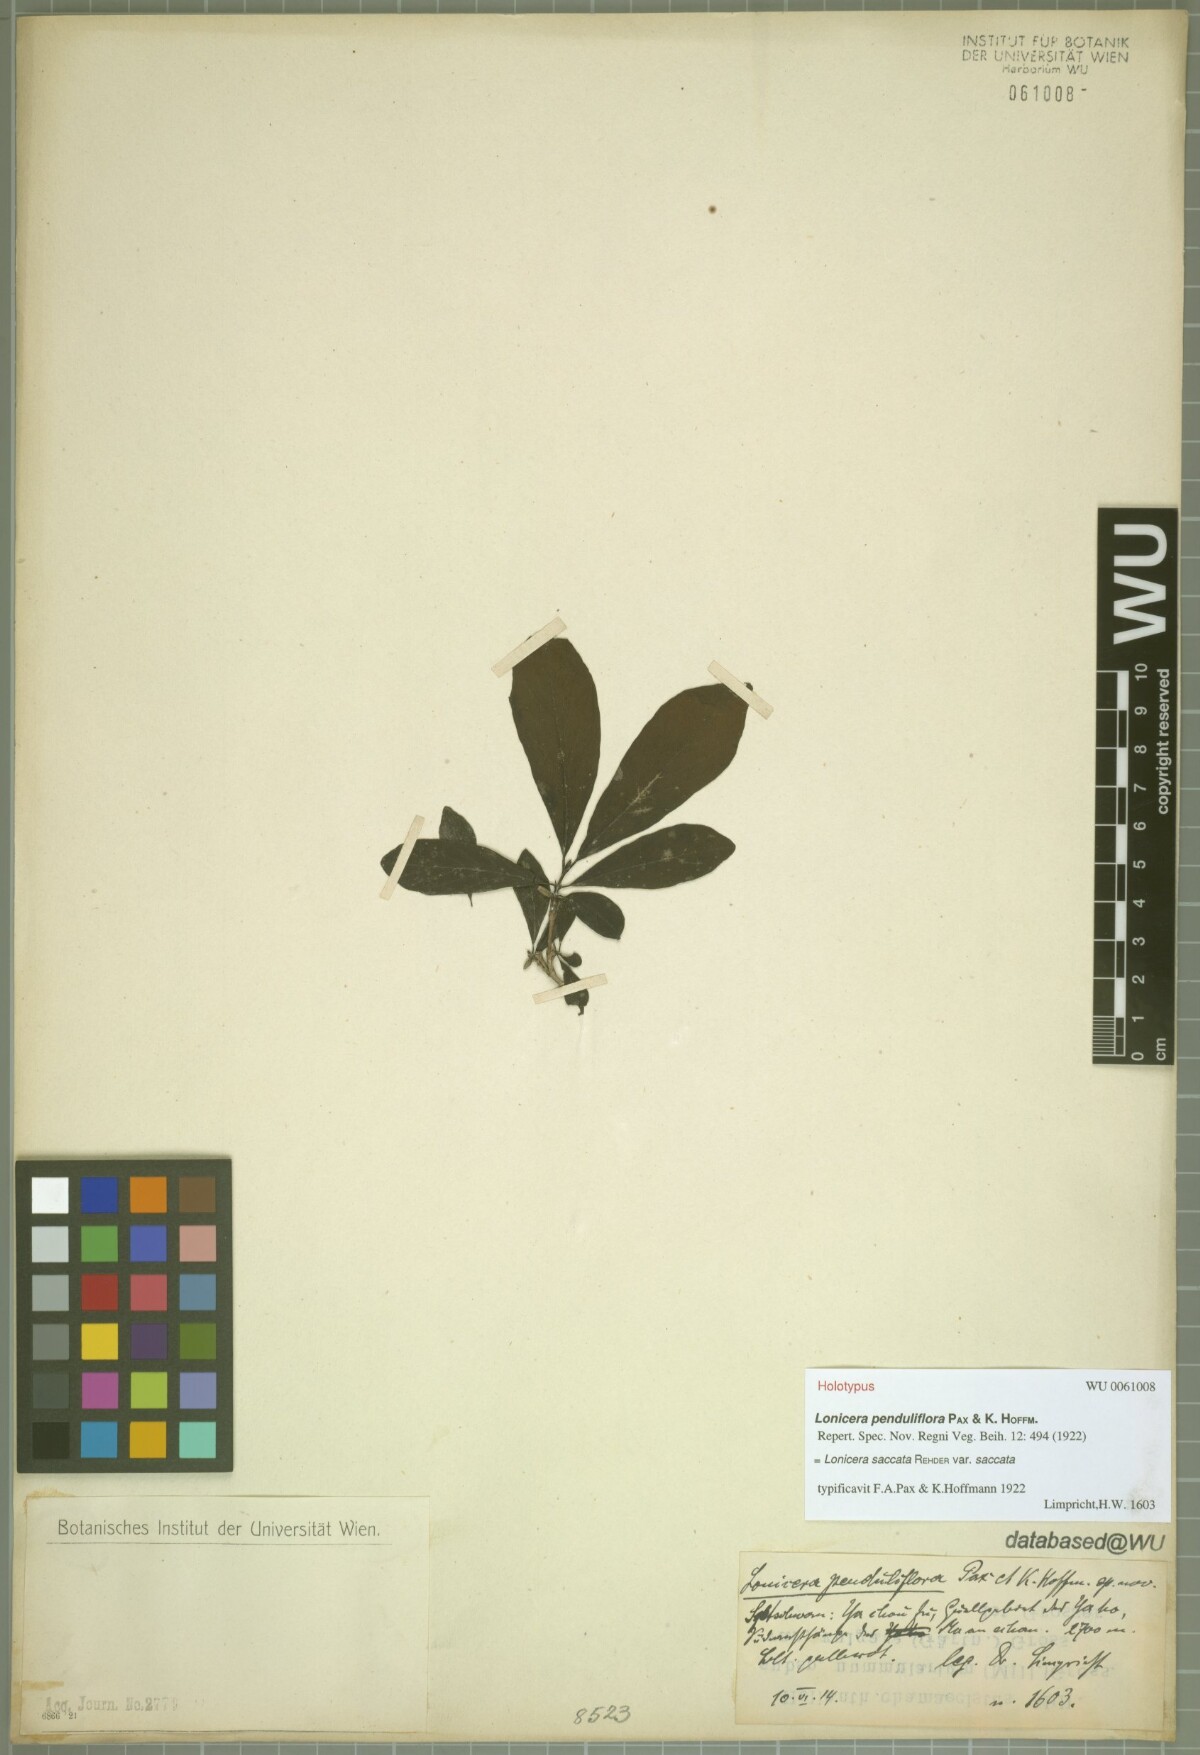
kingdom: Plantae
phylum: Tracheophyta
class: Magnoliopsida
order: Dipsacales
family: Caprifoliaceae
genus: Lonicera
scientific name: Lonicera tangutica
